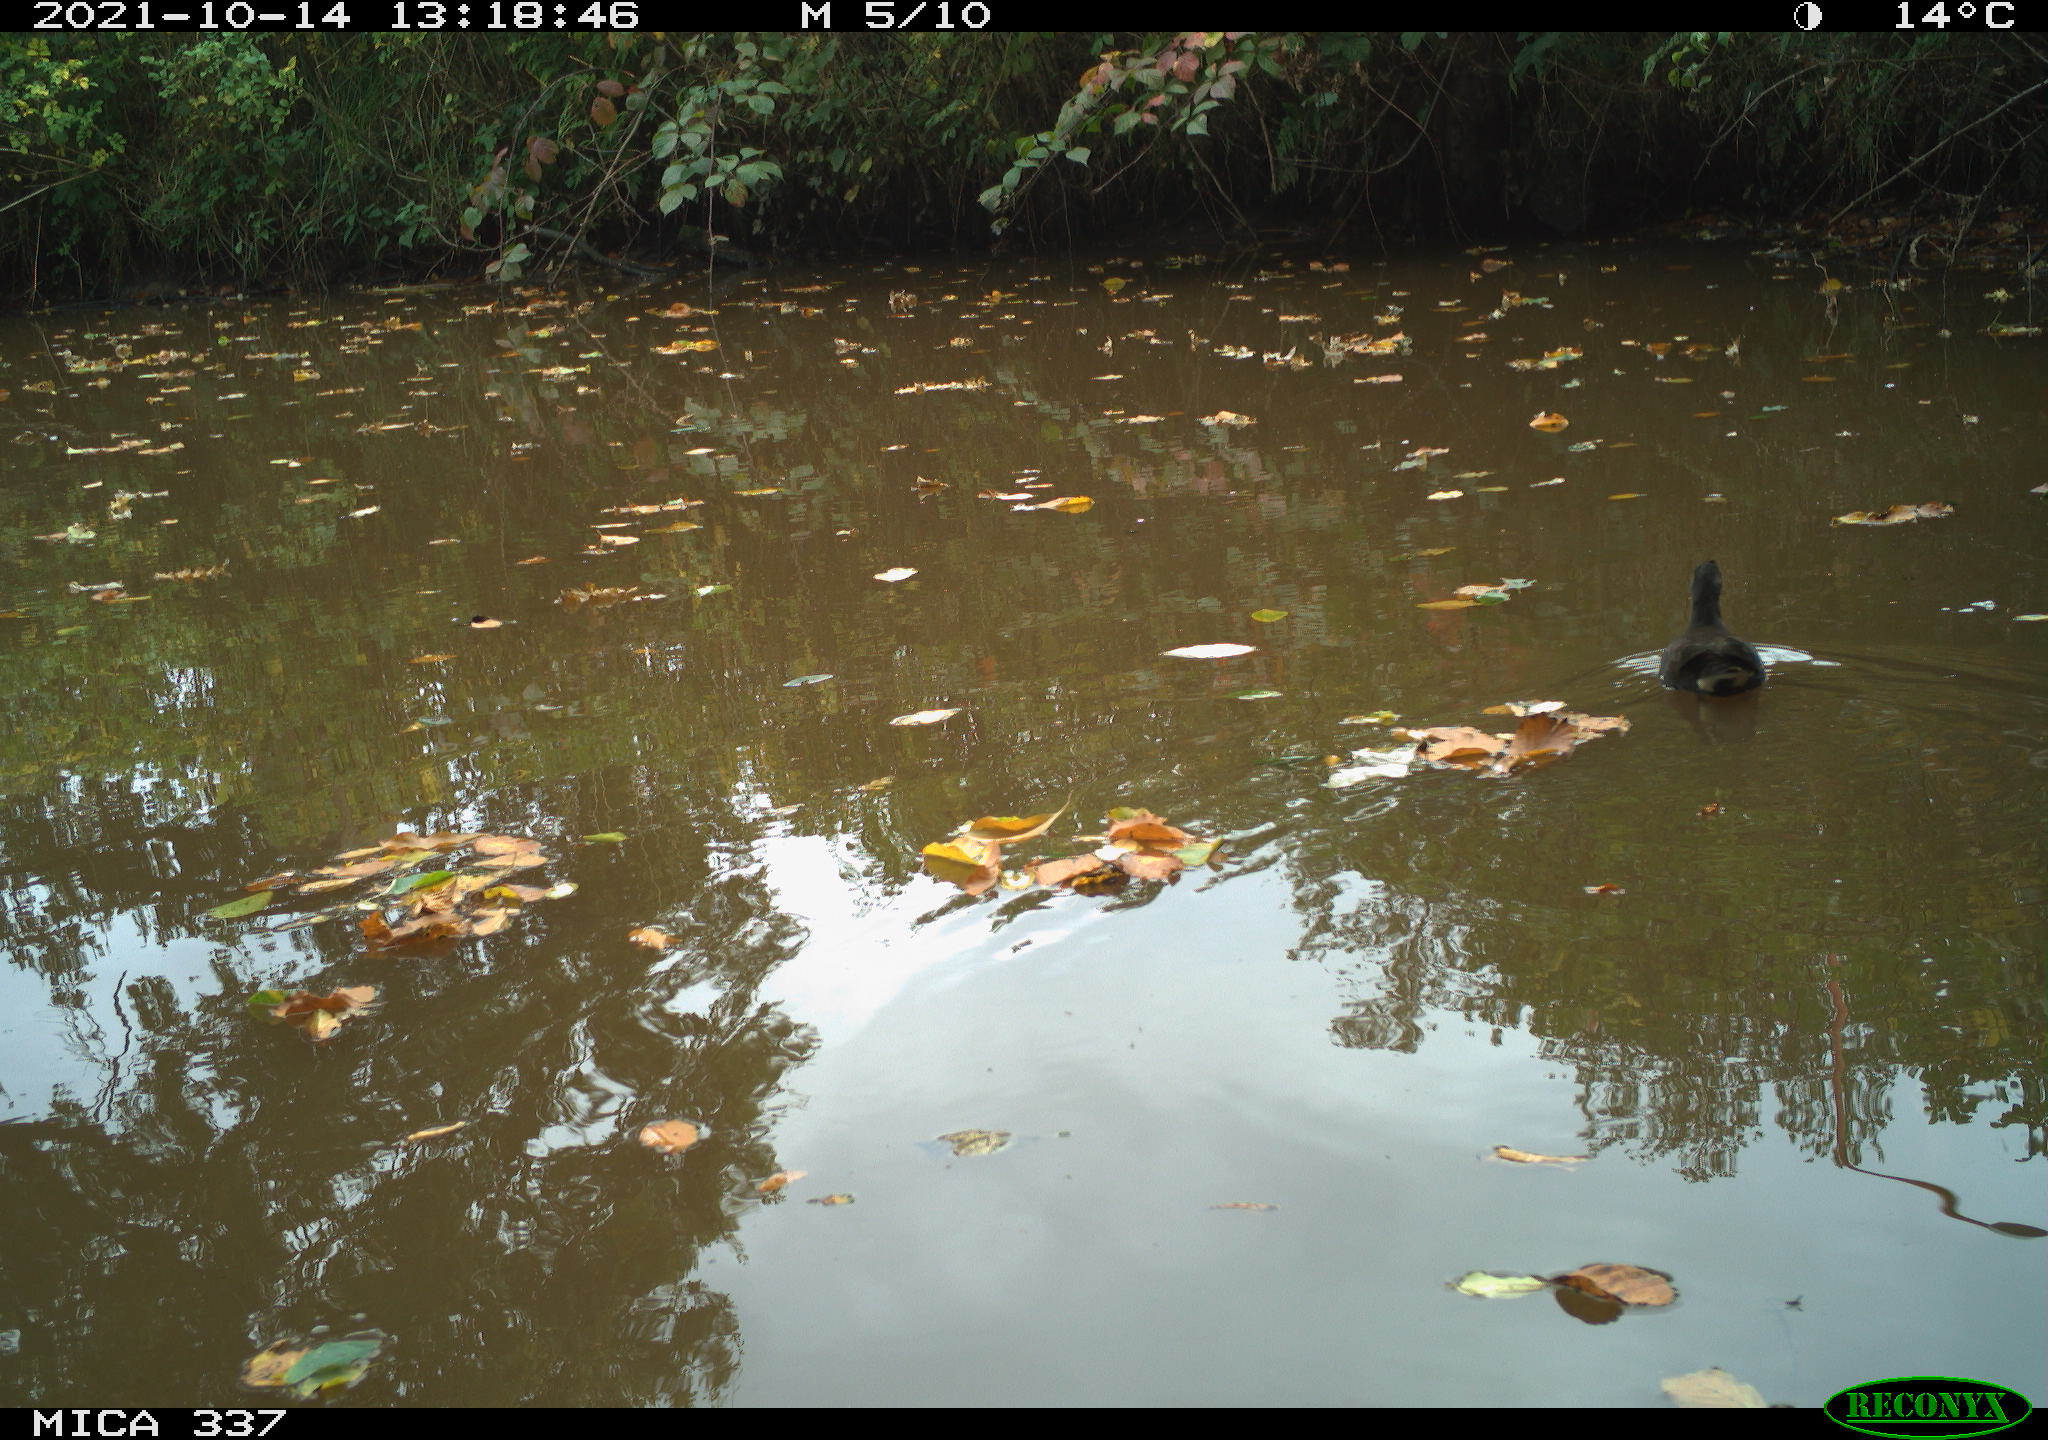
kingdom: Animalia
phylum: Chordata
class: Aves
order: Gruiformes
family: Rallidae
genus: Gallinula
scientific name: Gallinula chloropus
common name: Common moorhen
